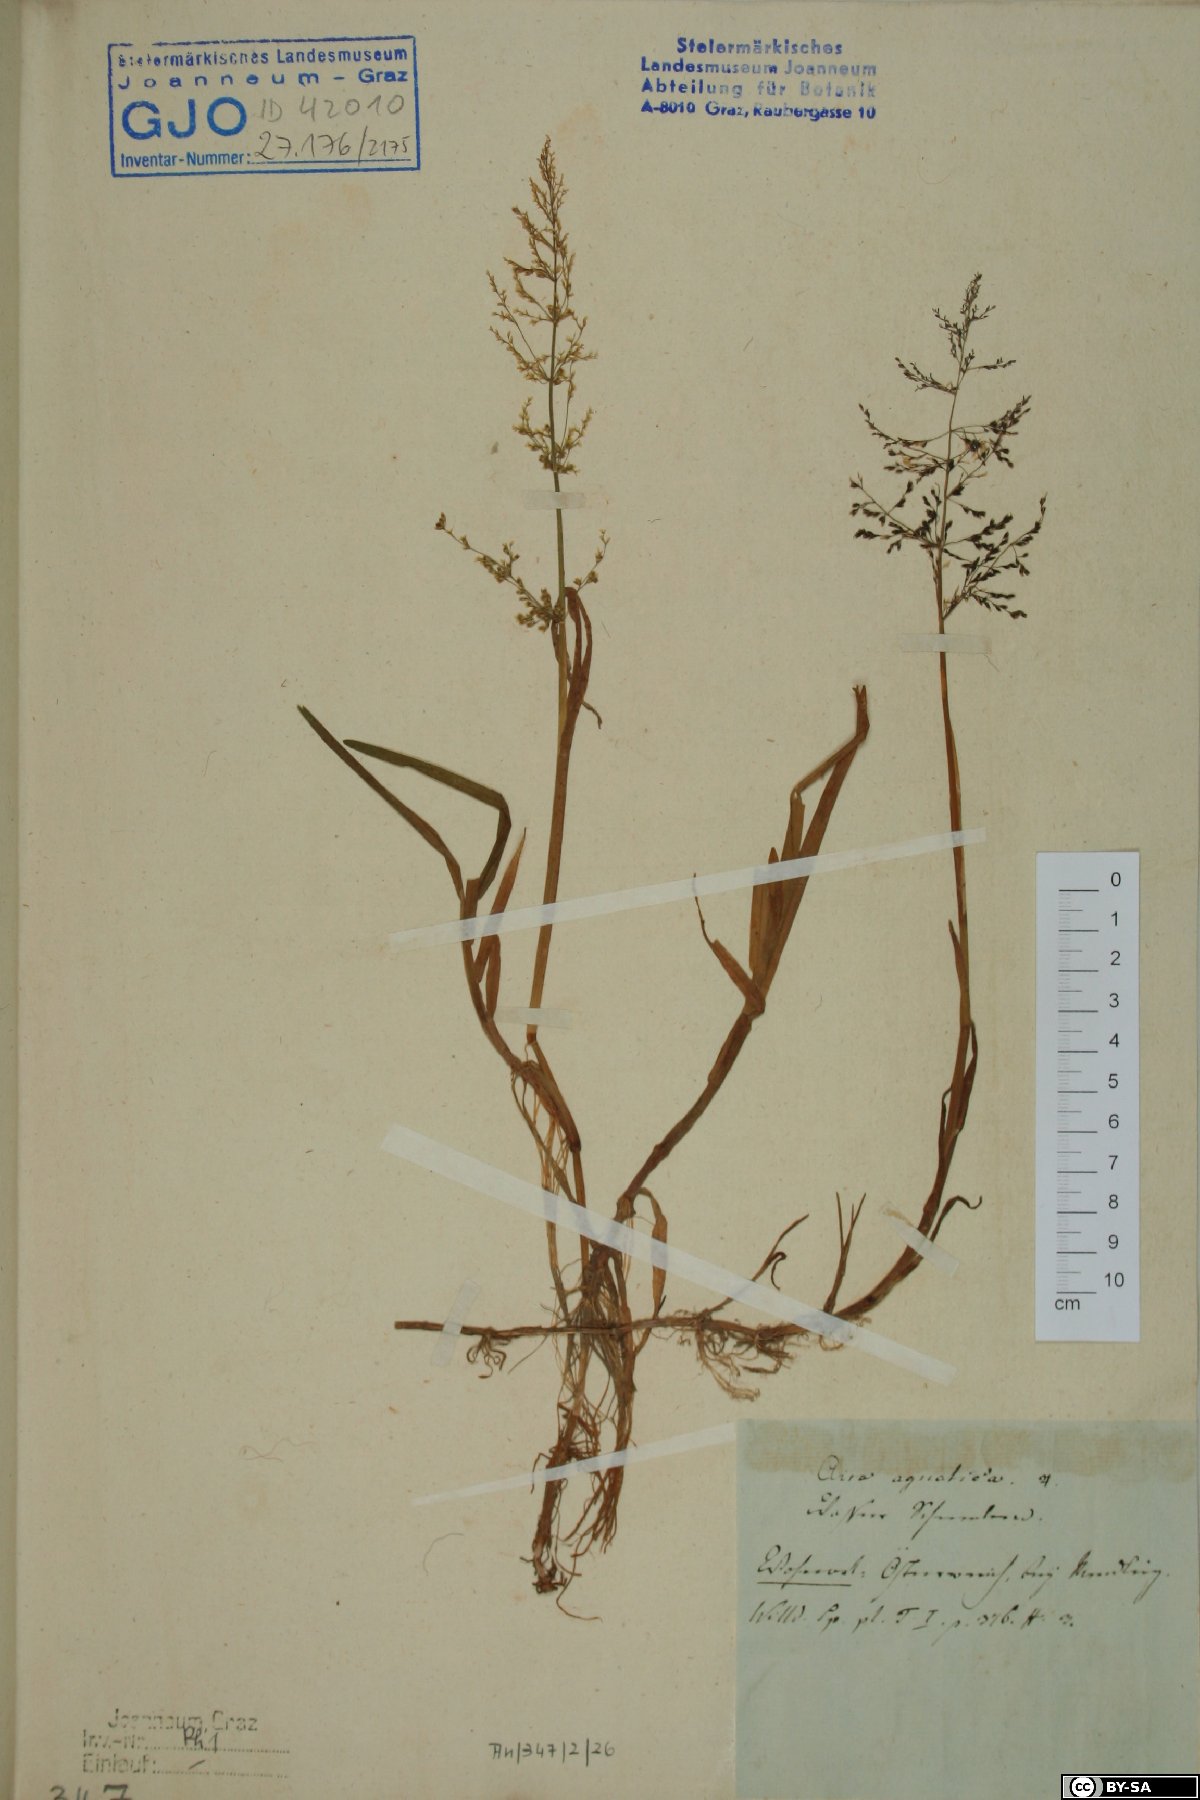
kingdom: Plantae
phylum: Tracheophyta
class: Liliopsida
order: Poales
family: Poaceae
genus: Catabrosa
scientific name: Catabrosa aquatica
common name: Whorl-grass
